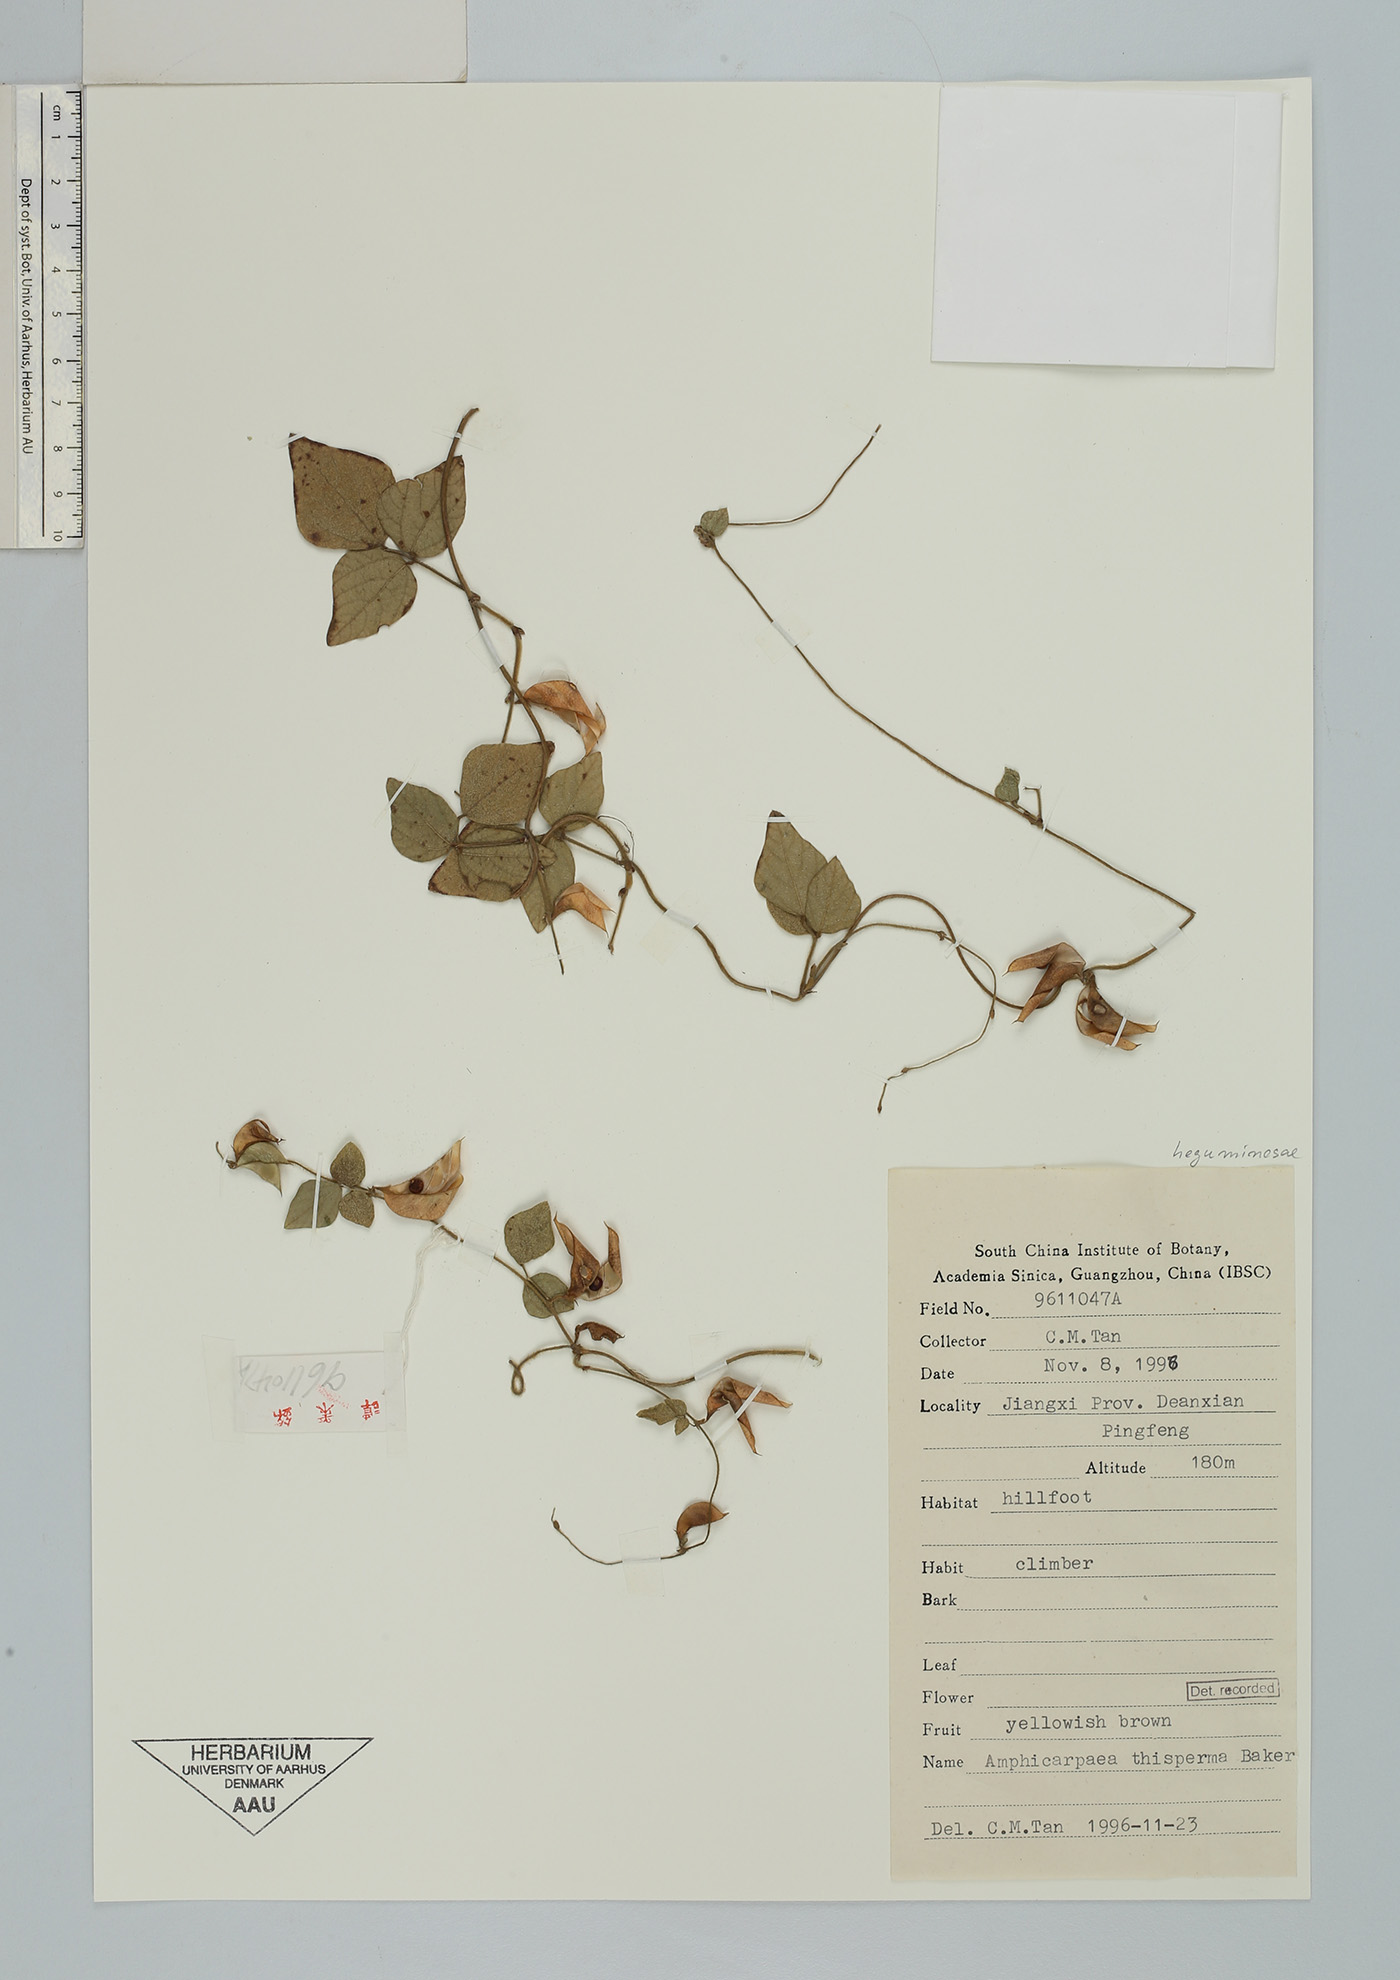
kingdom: Plantae
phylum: Tracheophyta
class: Magnoliopsida
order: Fabales
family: Fabaceae
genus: Amphicarpaea
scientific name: Amphicarpaea edgeworthii
